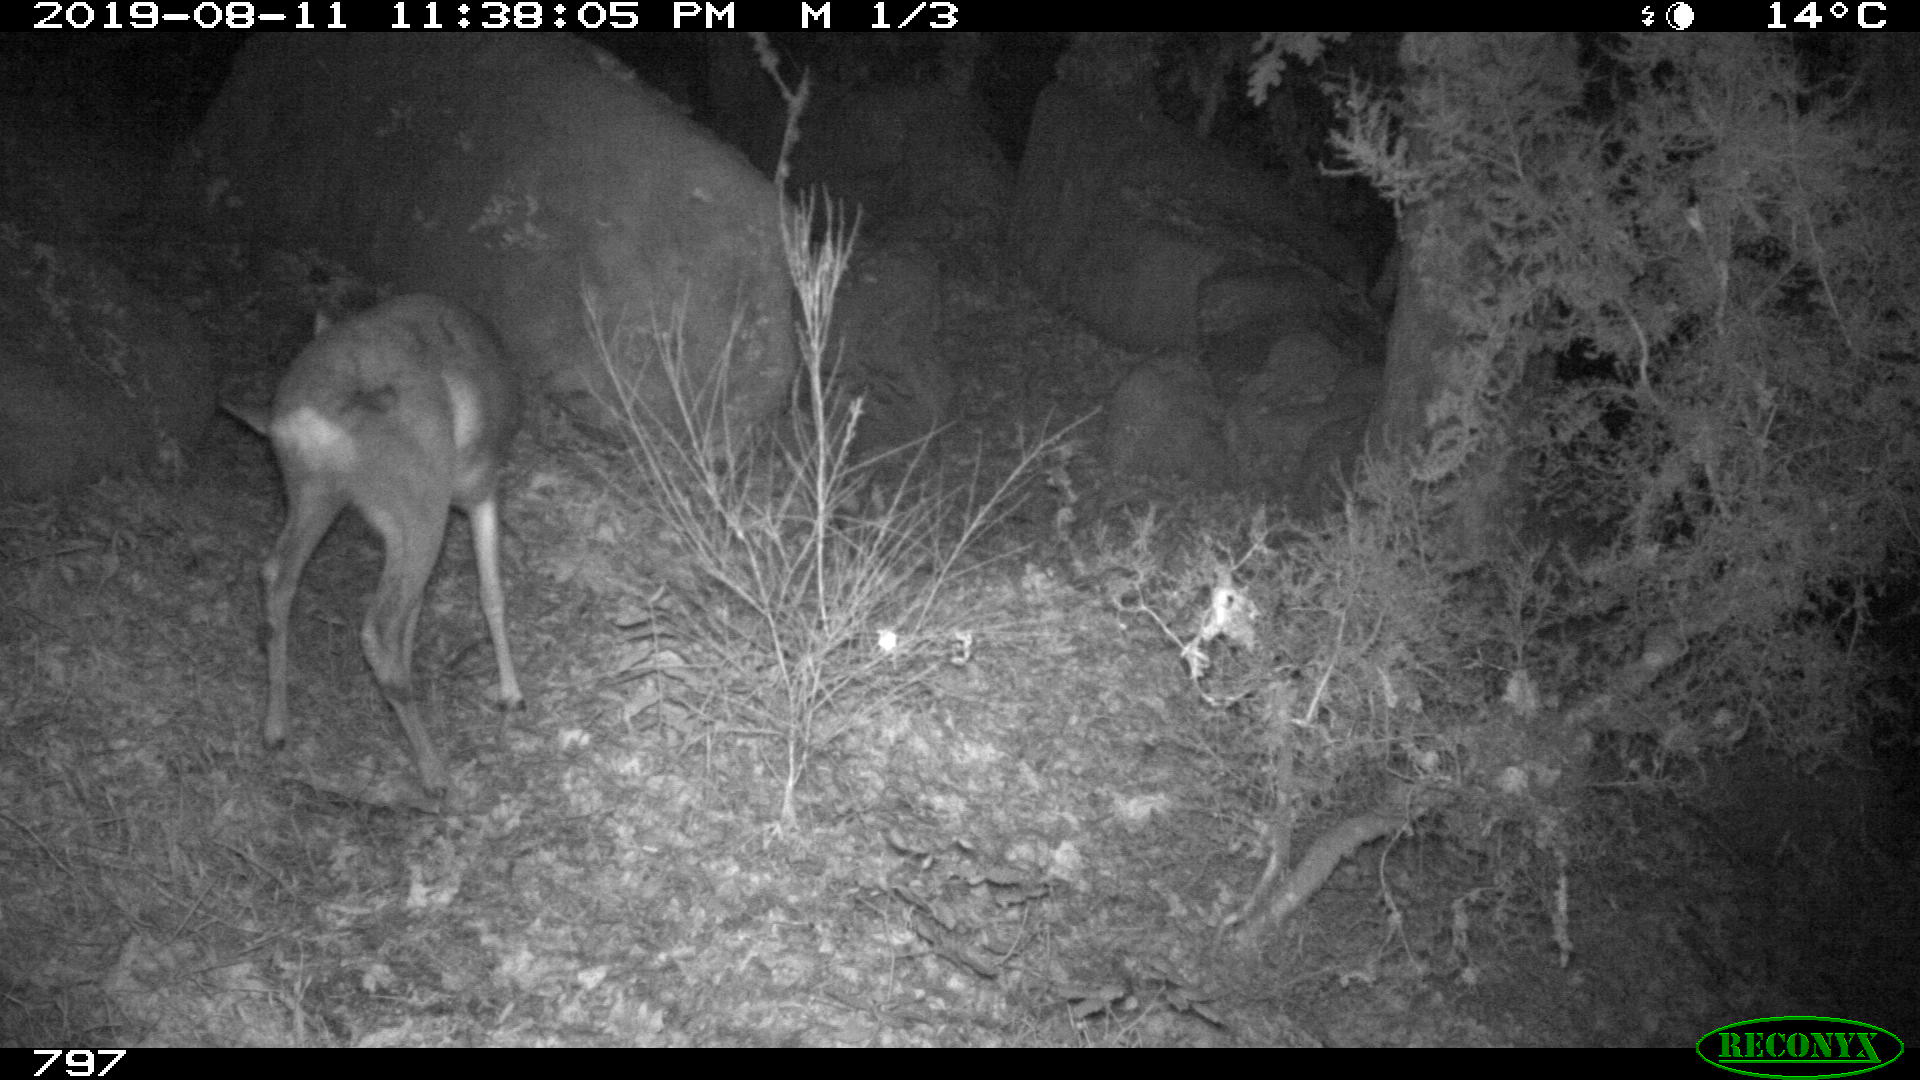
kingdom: Animalia
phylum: Chordata
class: Mammalia
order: Artiodactyla
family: Cervidae
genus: Capreolus
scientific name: Capreolus capreolus
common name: Western roe deer
